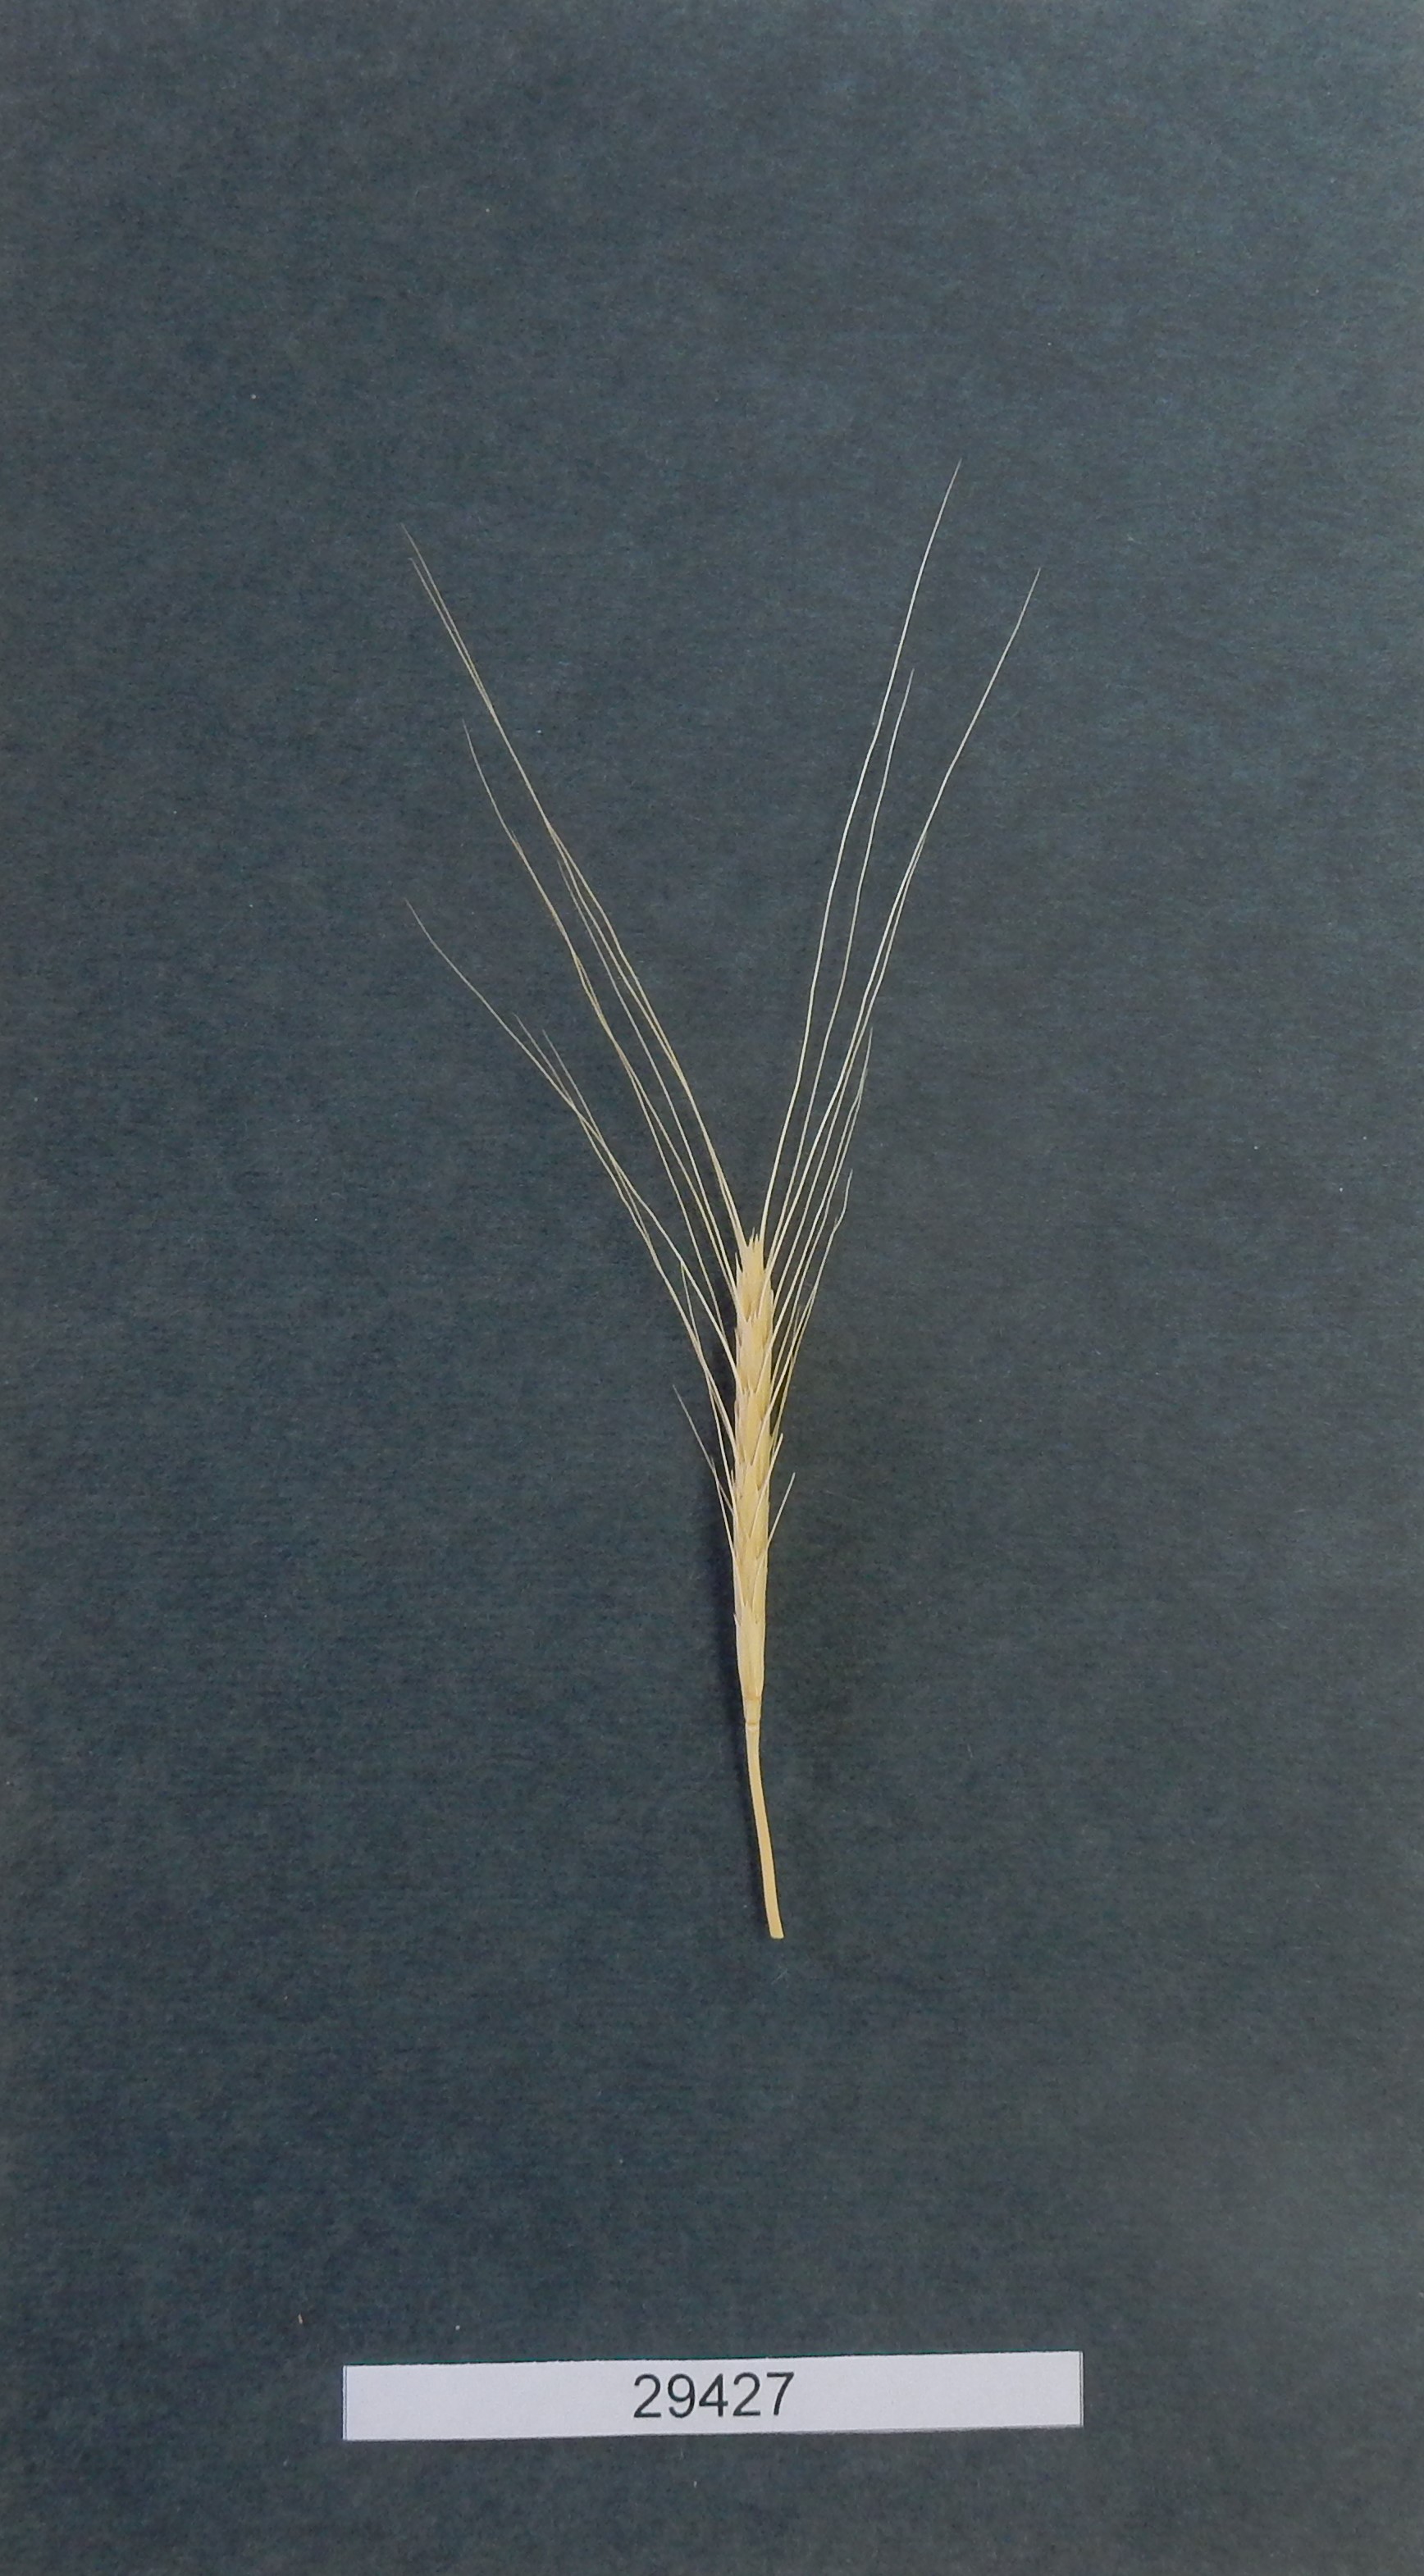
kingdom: Plantae
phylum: Tracheophyta
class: Liliopsida
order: Poales
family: Poaceae
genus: Triticum
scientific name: Triticum urartu
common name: Red wild einkorn
